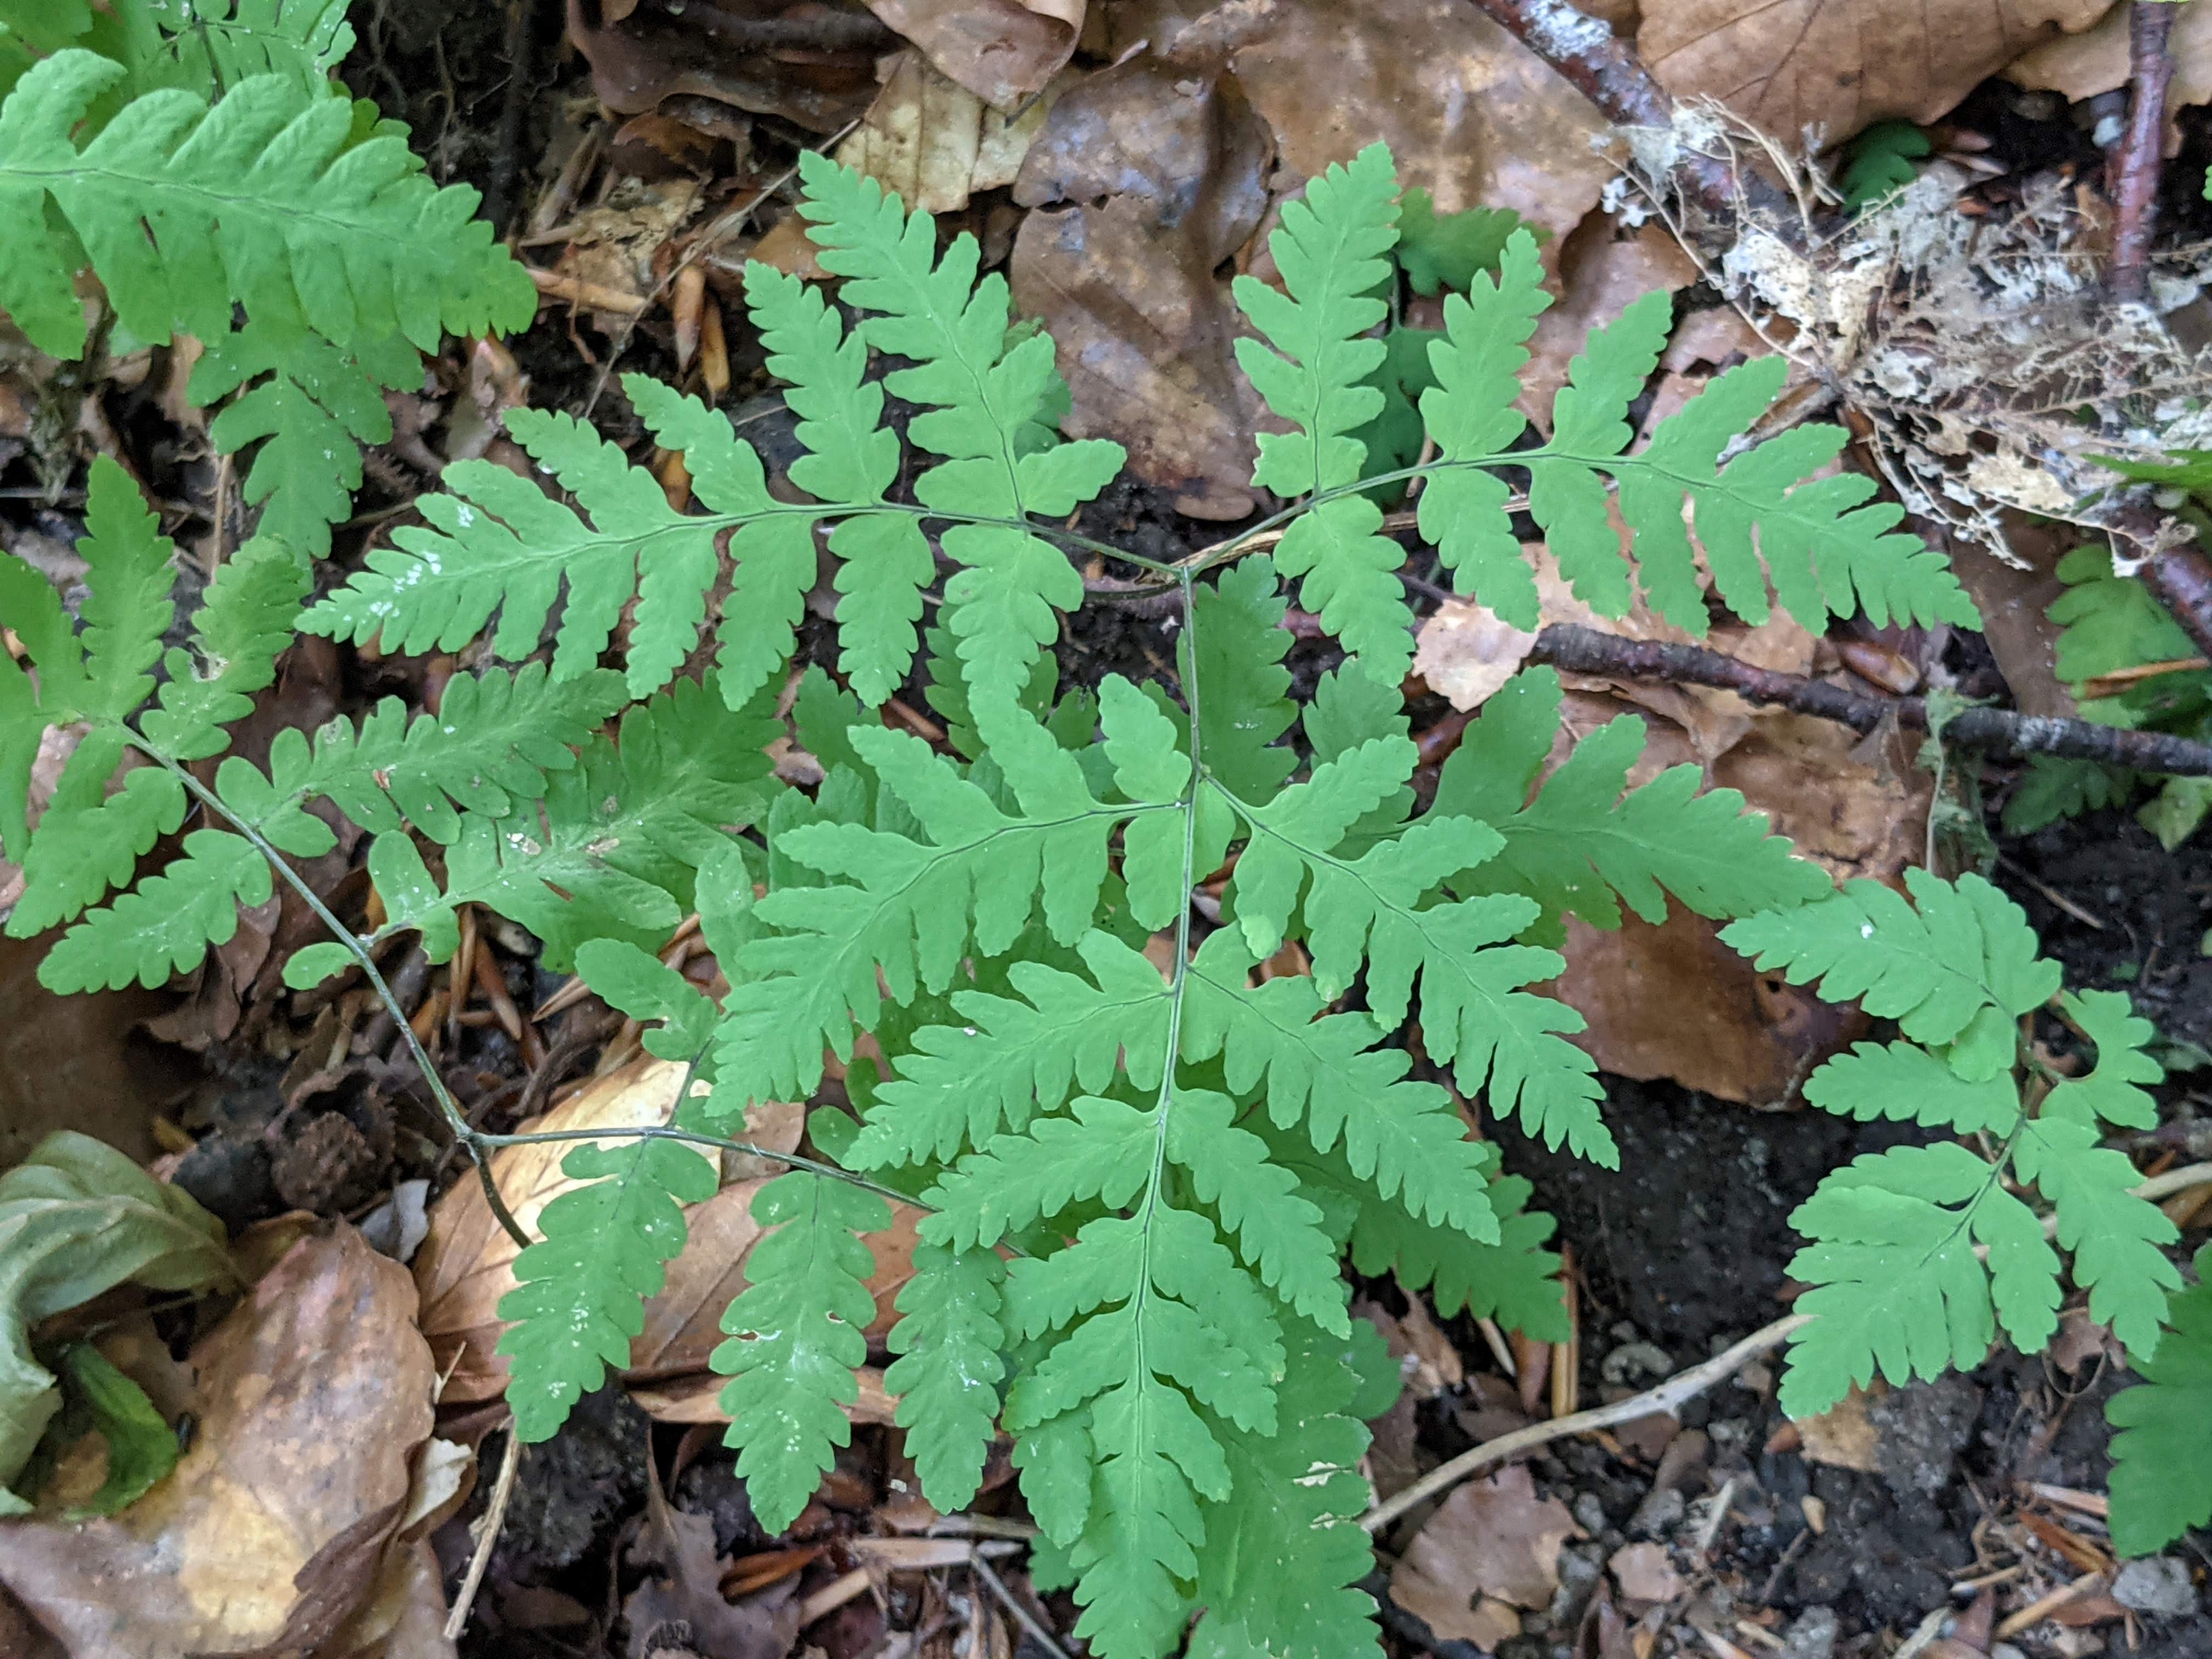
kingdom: Plantae
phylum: Tracheophyta
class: Polypodiopsida
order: Polypodiales
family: Cystopteridaceae
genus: Gymnocarpium
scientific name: Gymnocarpium dryopteris
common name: Tredelt egebregne
